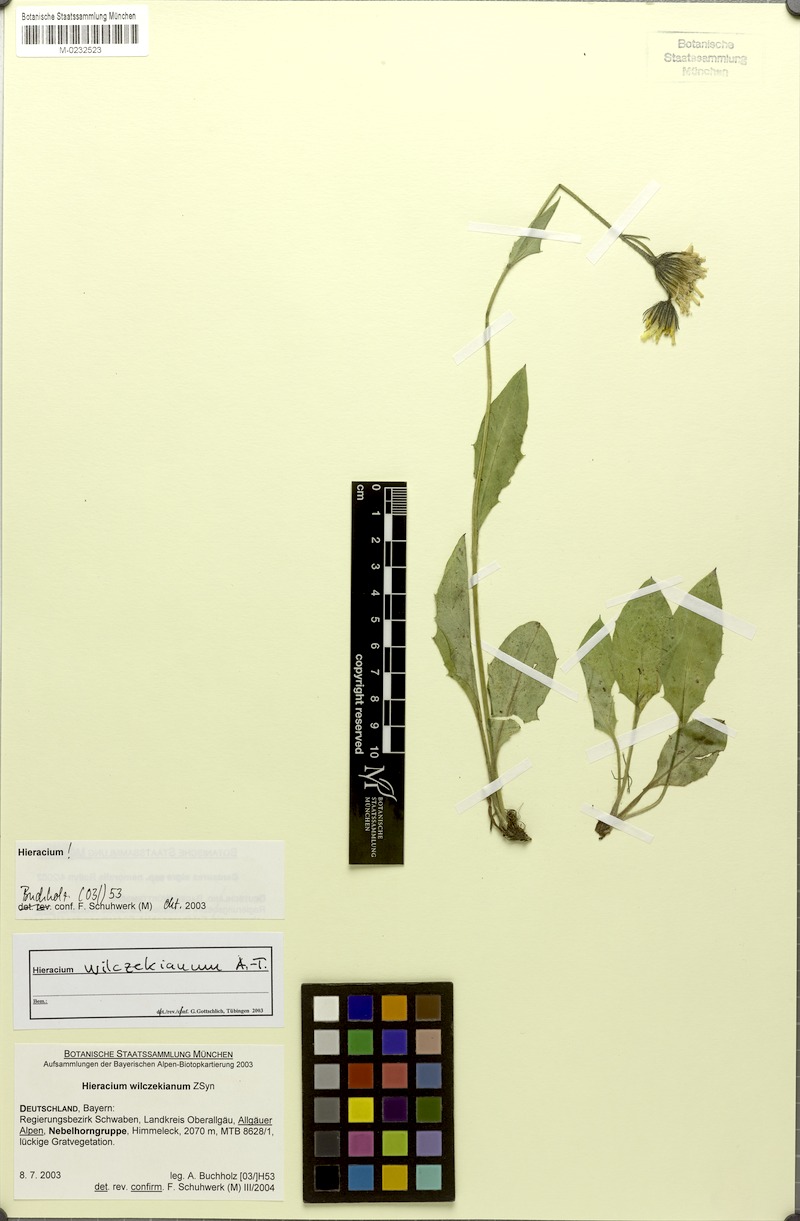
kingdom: Plantae
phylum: Tracheophyta
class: Magnoliopsida
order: Asterales
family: Asteraceae
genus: Hieracium
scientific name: Hieracium wilczekianum
